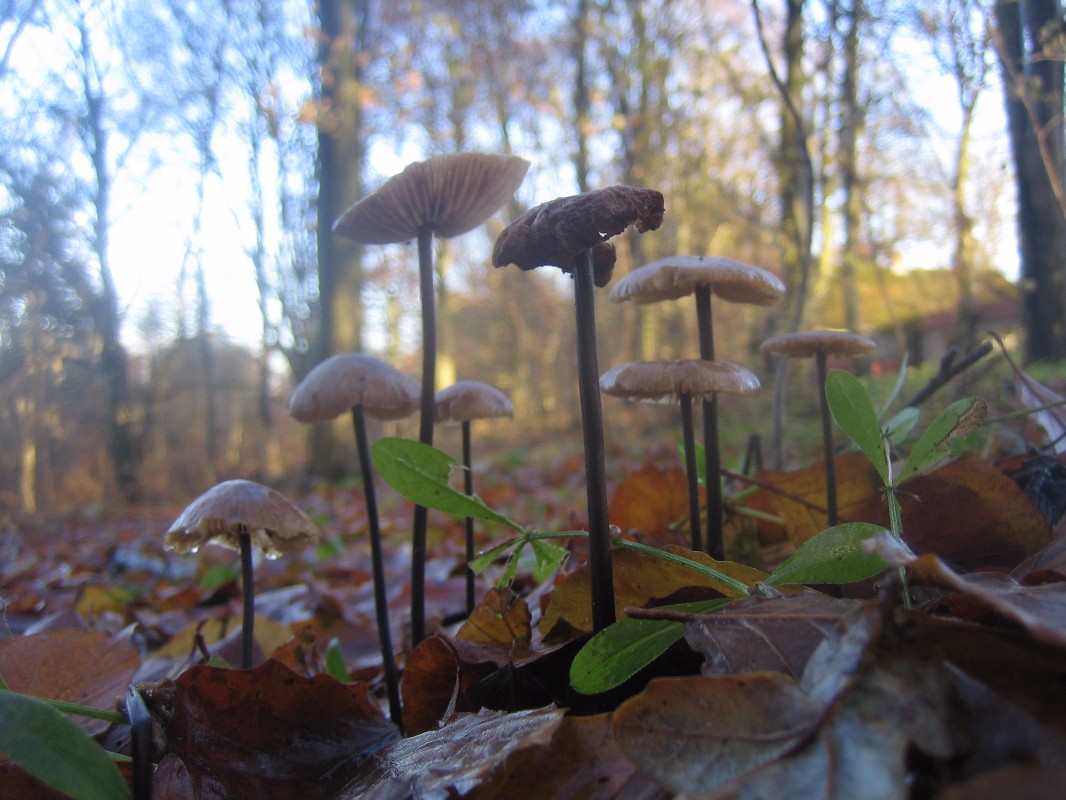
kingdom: Fungi
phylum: Basidiomycota
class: Agaricomycetes
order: Agaricales
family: Omphalotaceae
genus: Mycetinis
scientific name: Mycetinis alliaceus
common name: stor løghat
